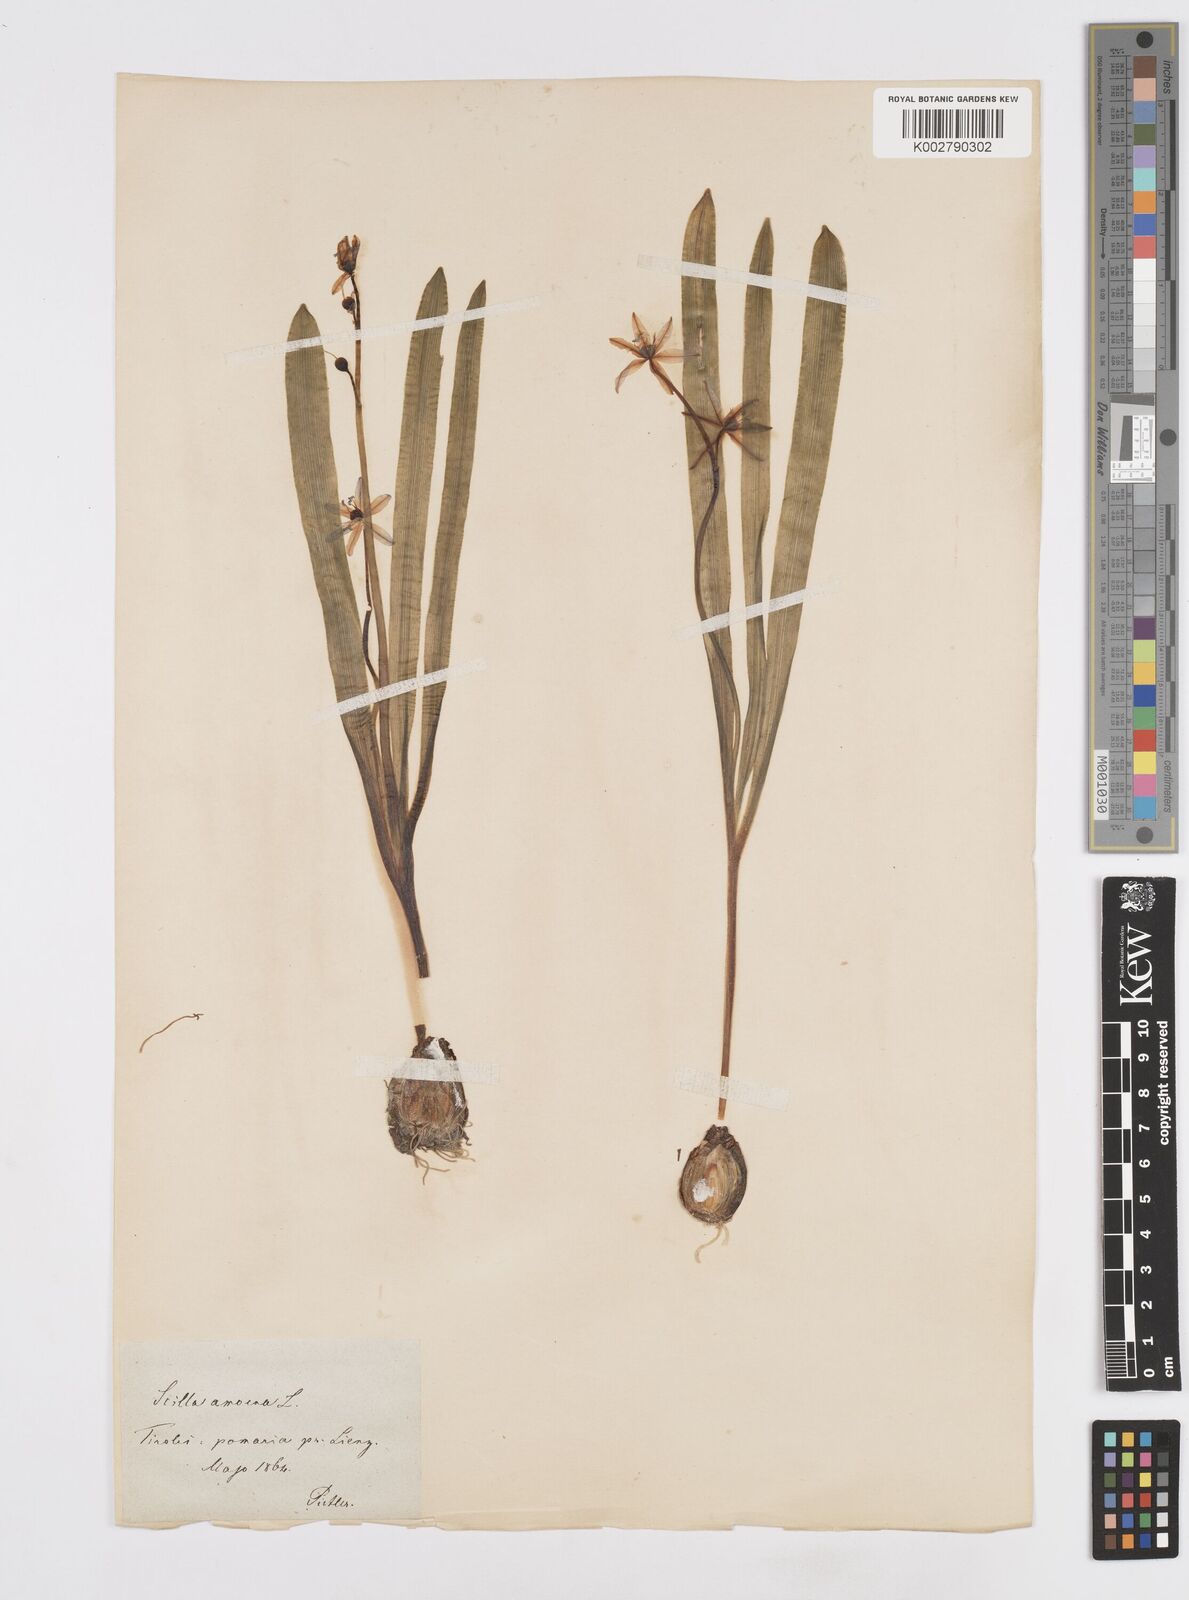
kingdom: Plantae
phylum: Tracheophyta
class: Liliopsida
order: Asparagales
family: Asparagaceae
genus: Scilla
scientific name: Scilla amoena
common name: Star-hyacinth
